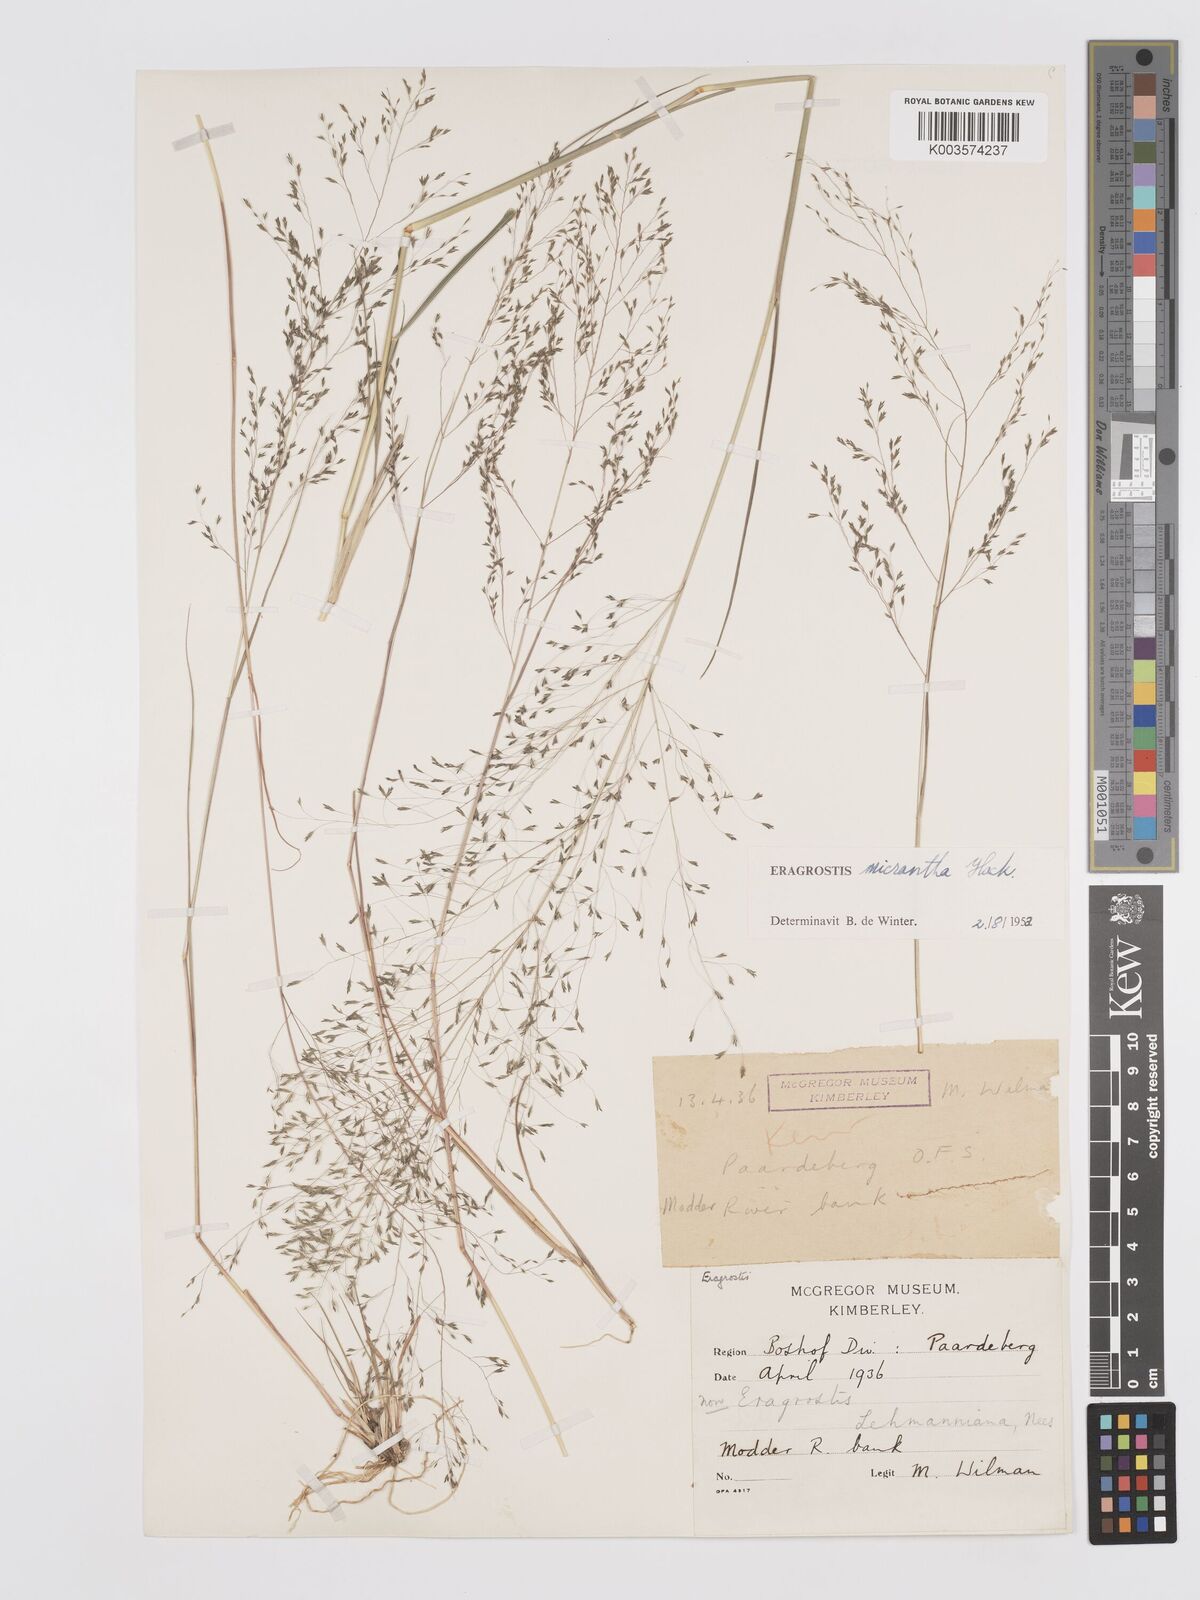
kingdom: Plantae
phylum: Tracheophyta
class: Liliopsida
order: Poales
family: Poaceae
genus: Eragrostis
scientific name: Eragrostis micrantha
